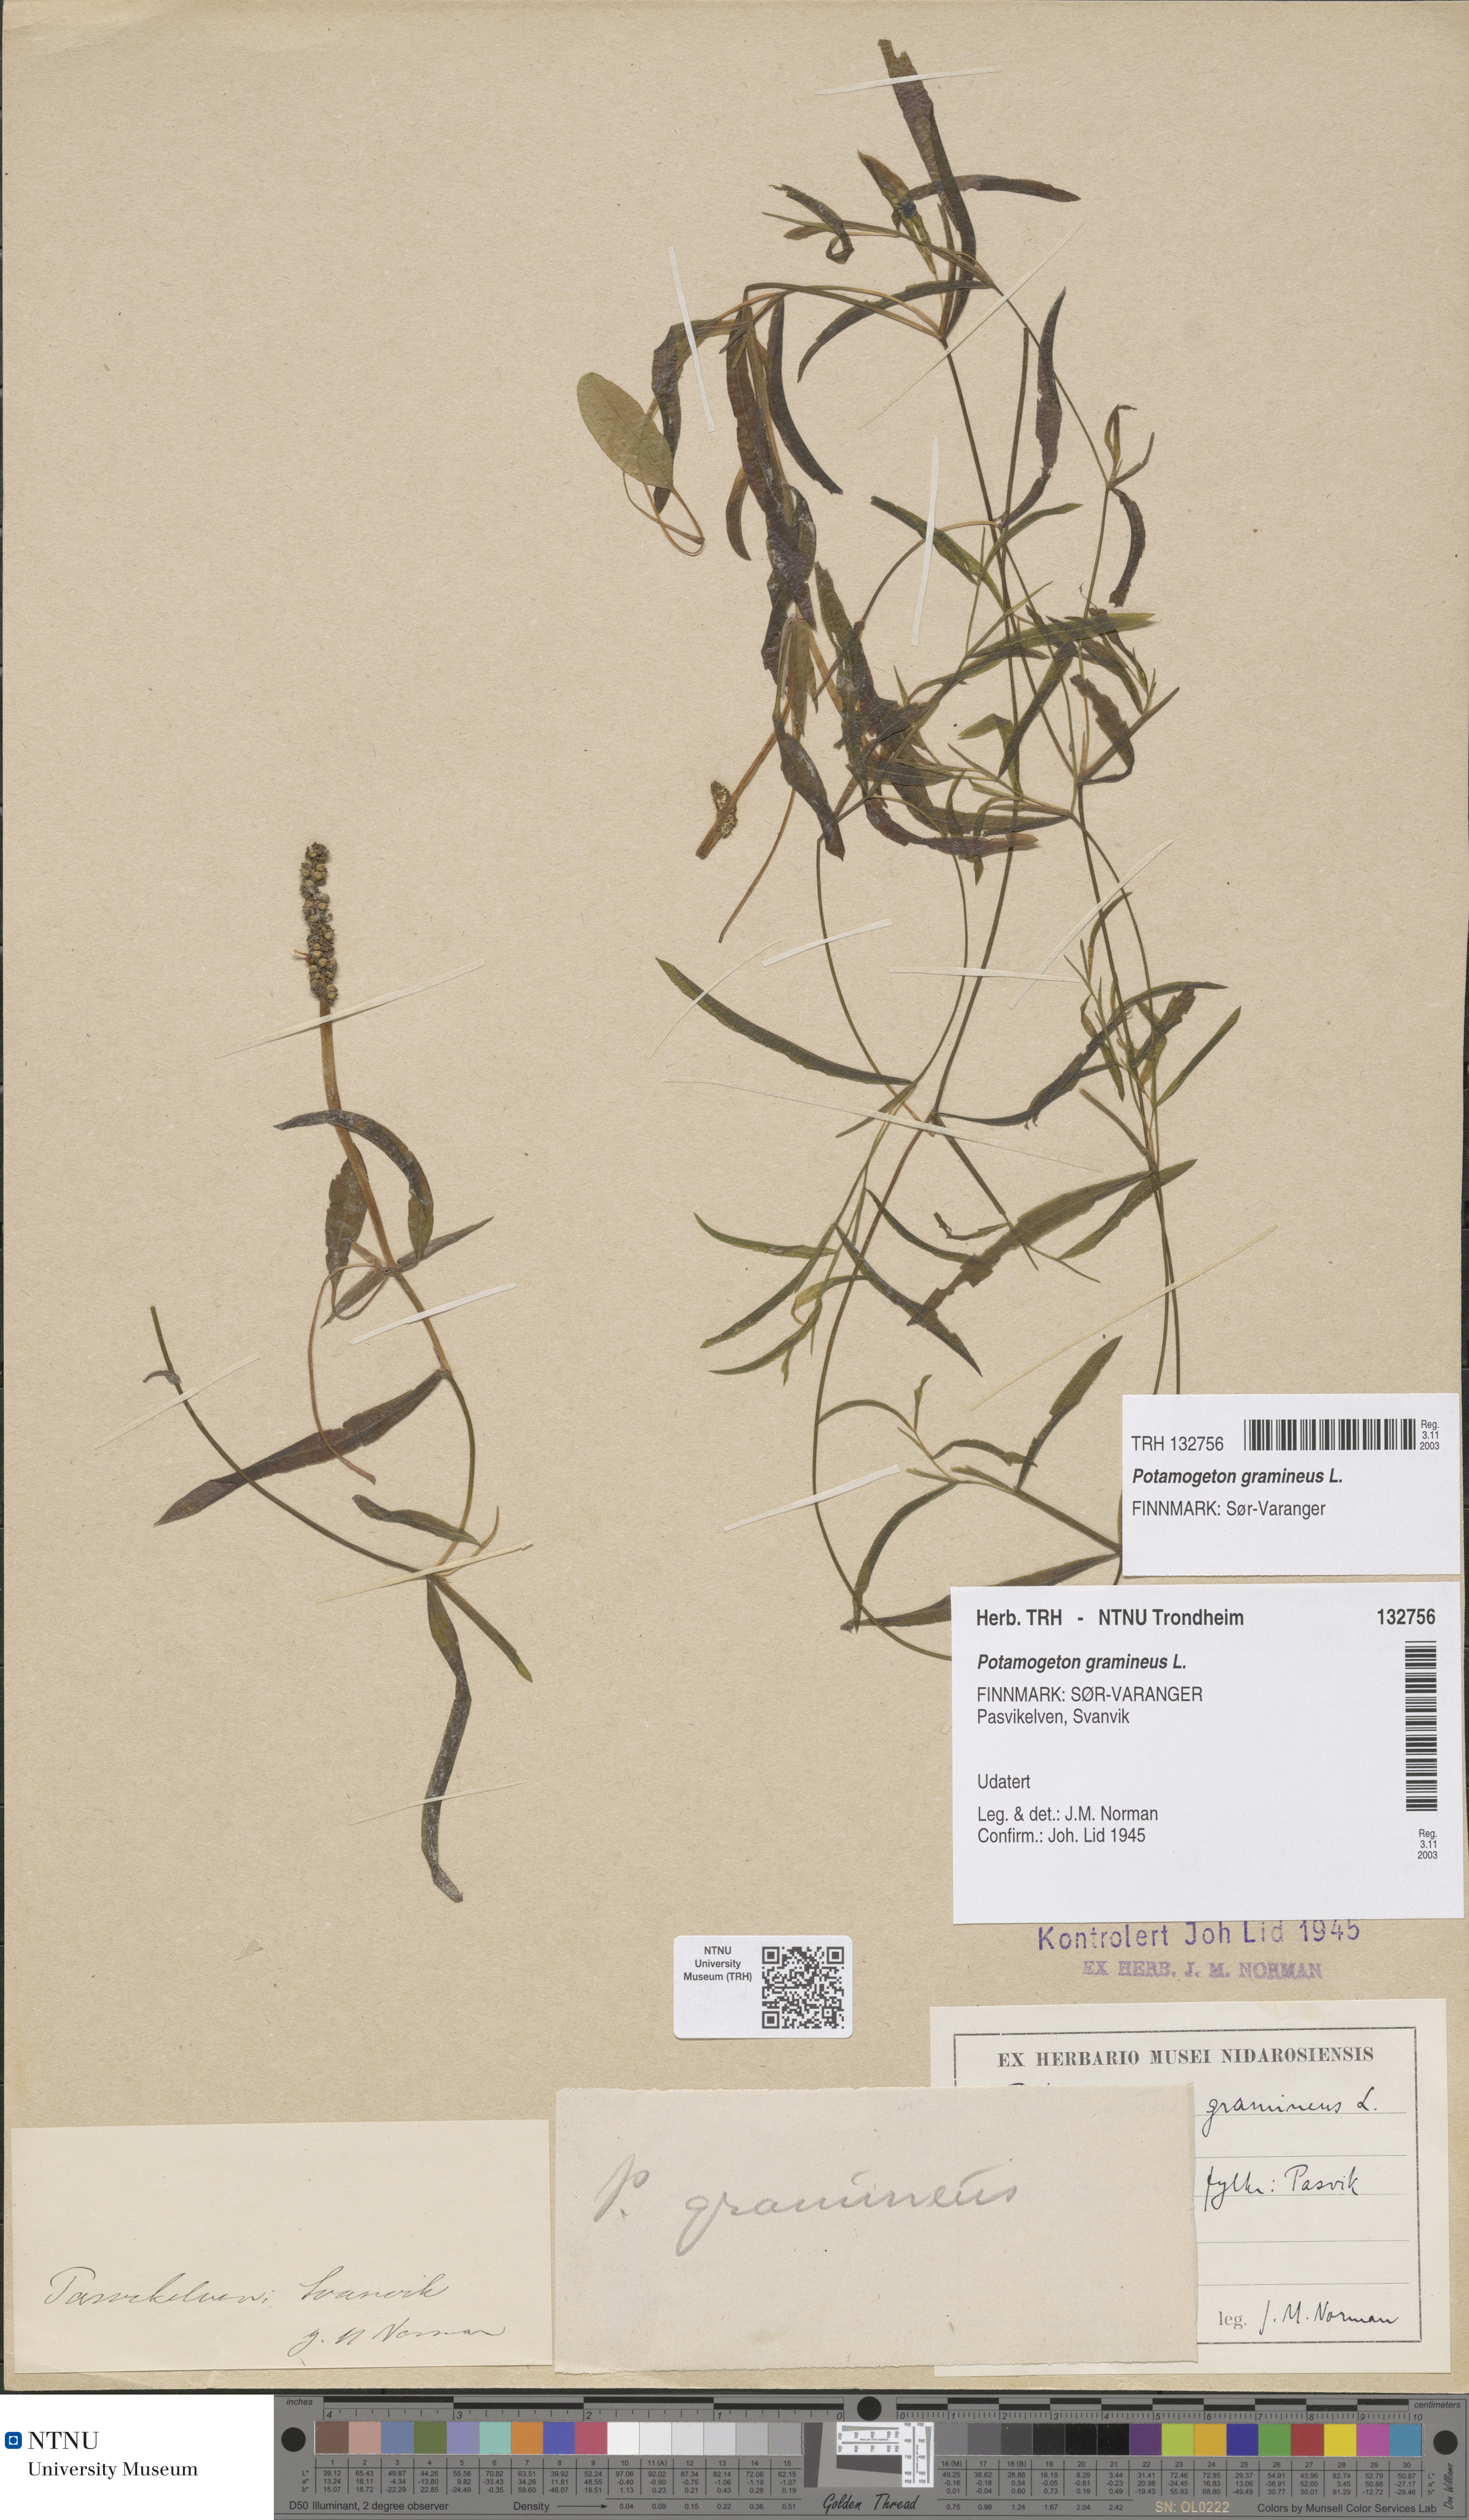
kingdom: Plantae
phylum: Tracheophyta
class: Liliopsida
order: Alismatales
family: Potamogetonaceae
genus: Potamogeton
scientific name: Potamogeton gramineus
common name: Various-leaved pondweed
